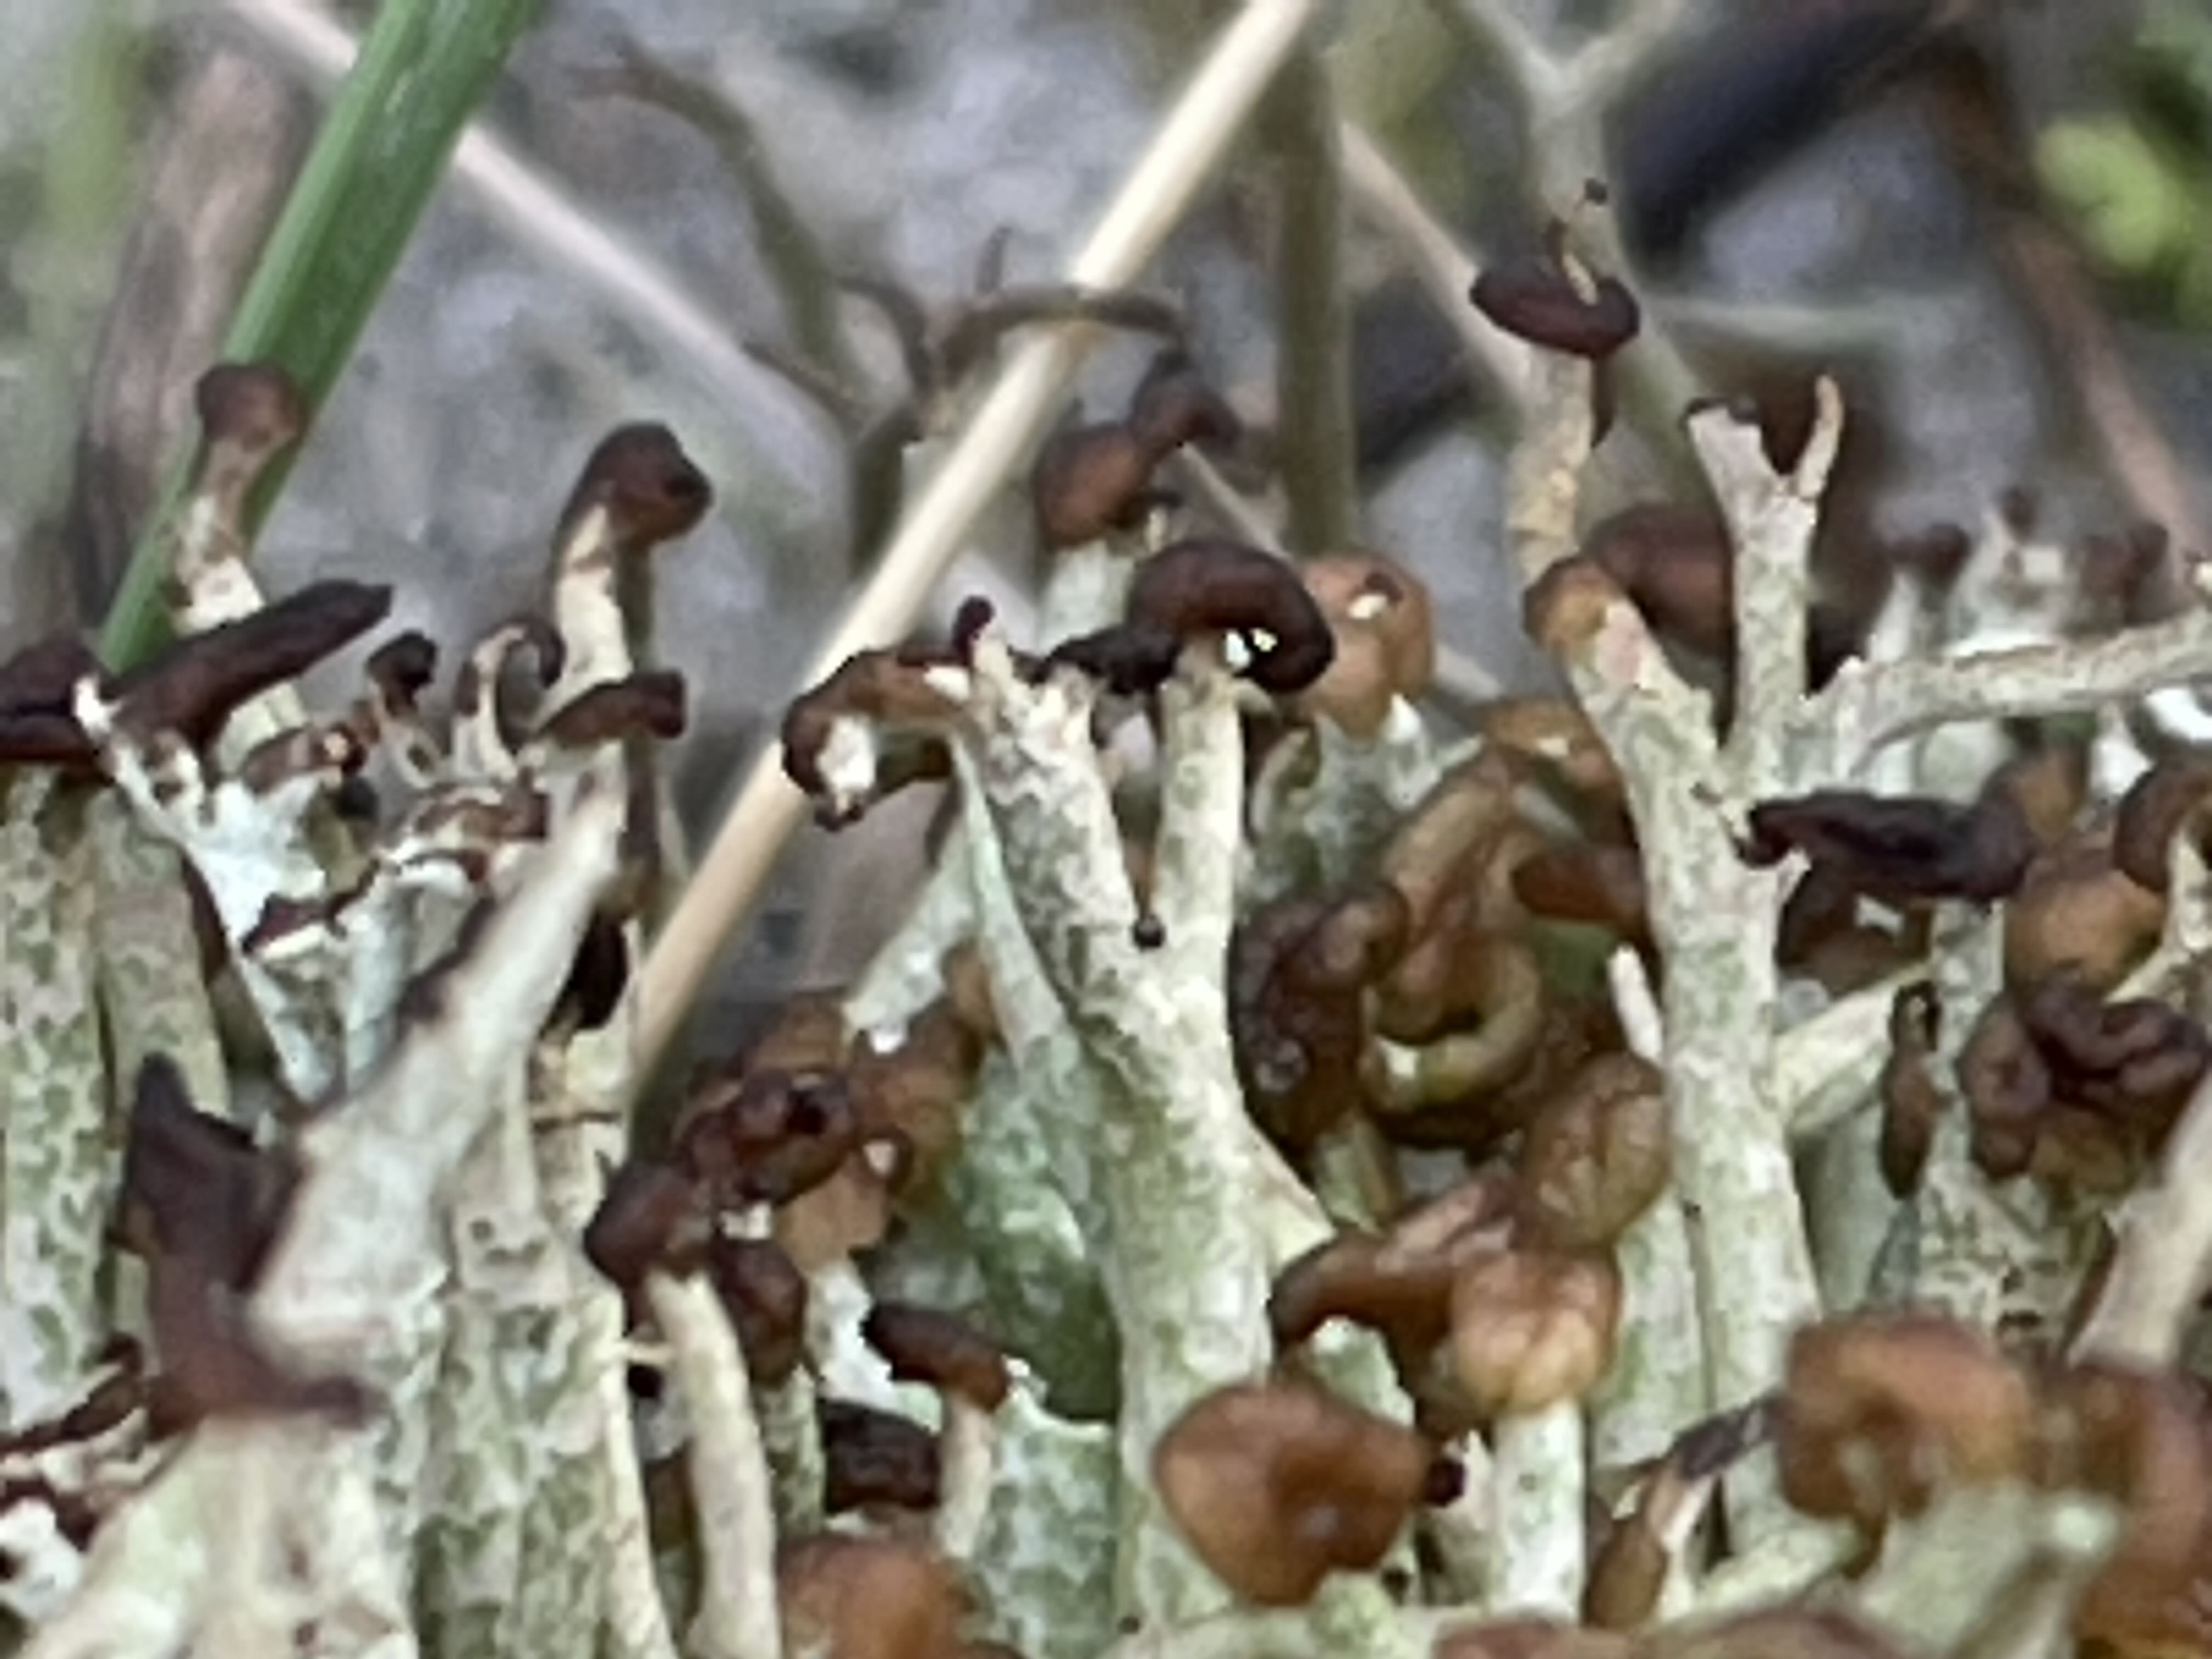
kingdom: Fungi
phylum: Ascomycota
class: Lecanoromycetes
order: Lecanorales
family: Cladoniaceae
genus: Cladonia
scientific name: Cladonia rangiformis
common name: spættet bægerlav
